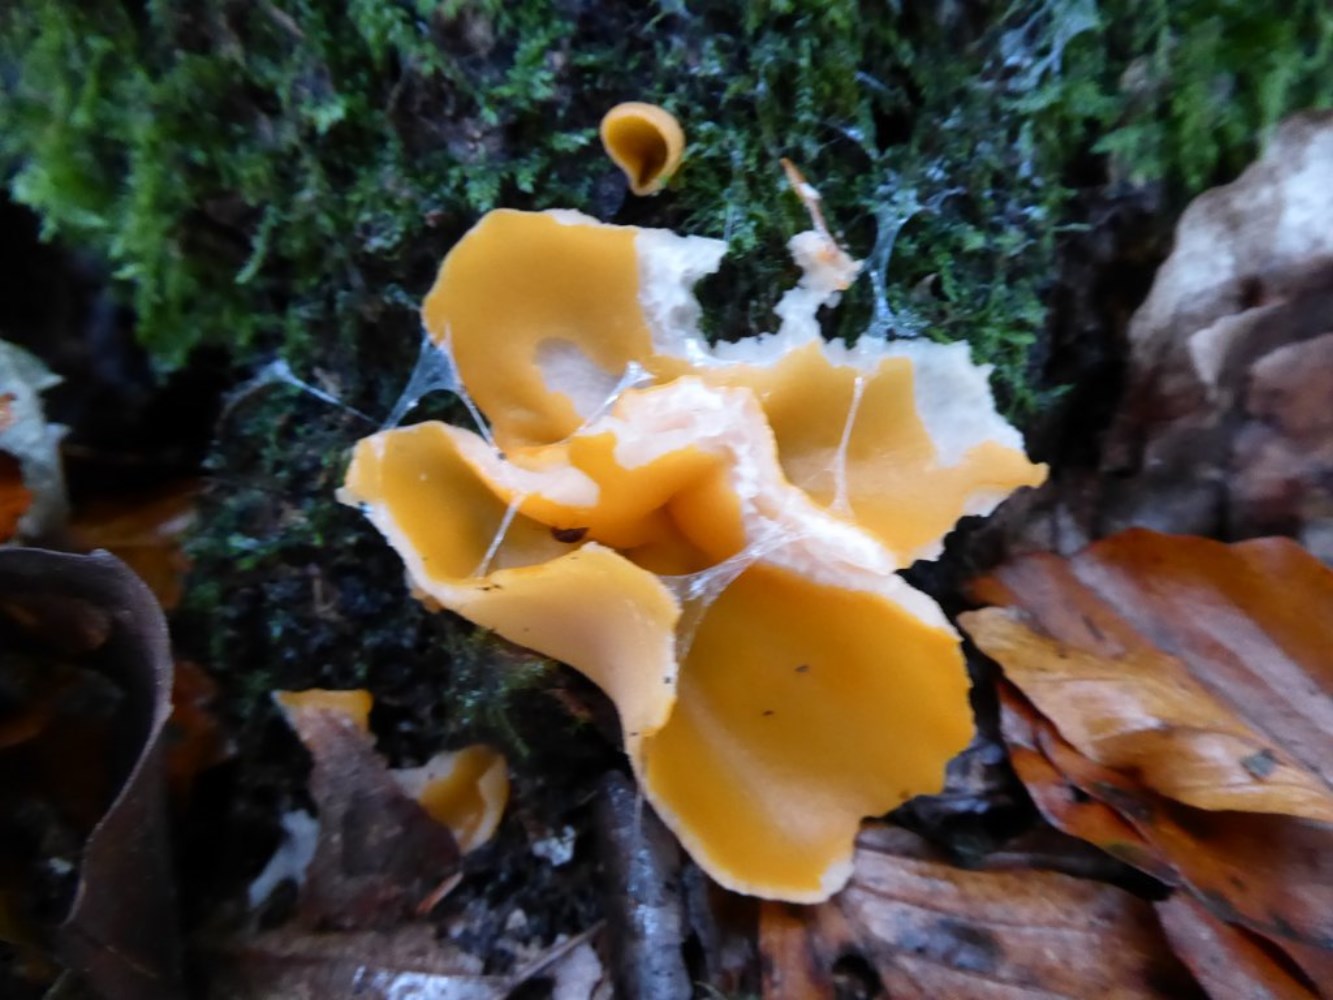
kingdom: Fungi
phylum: Ascomycota
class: Pezizomycetes
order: Pezizales
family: Pyronemataceae
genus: Aleuria
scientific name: Aleuria aurantia
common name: almindelig orangebæger
